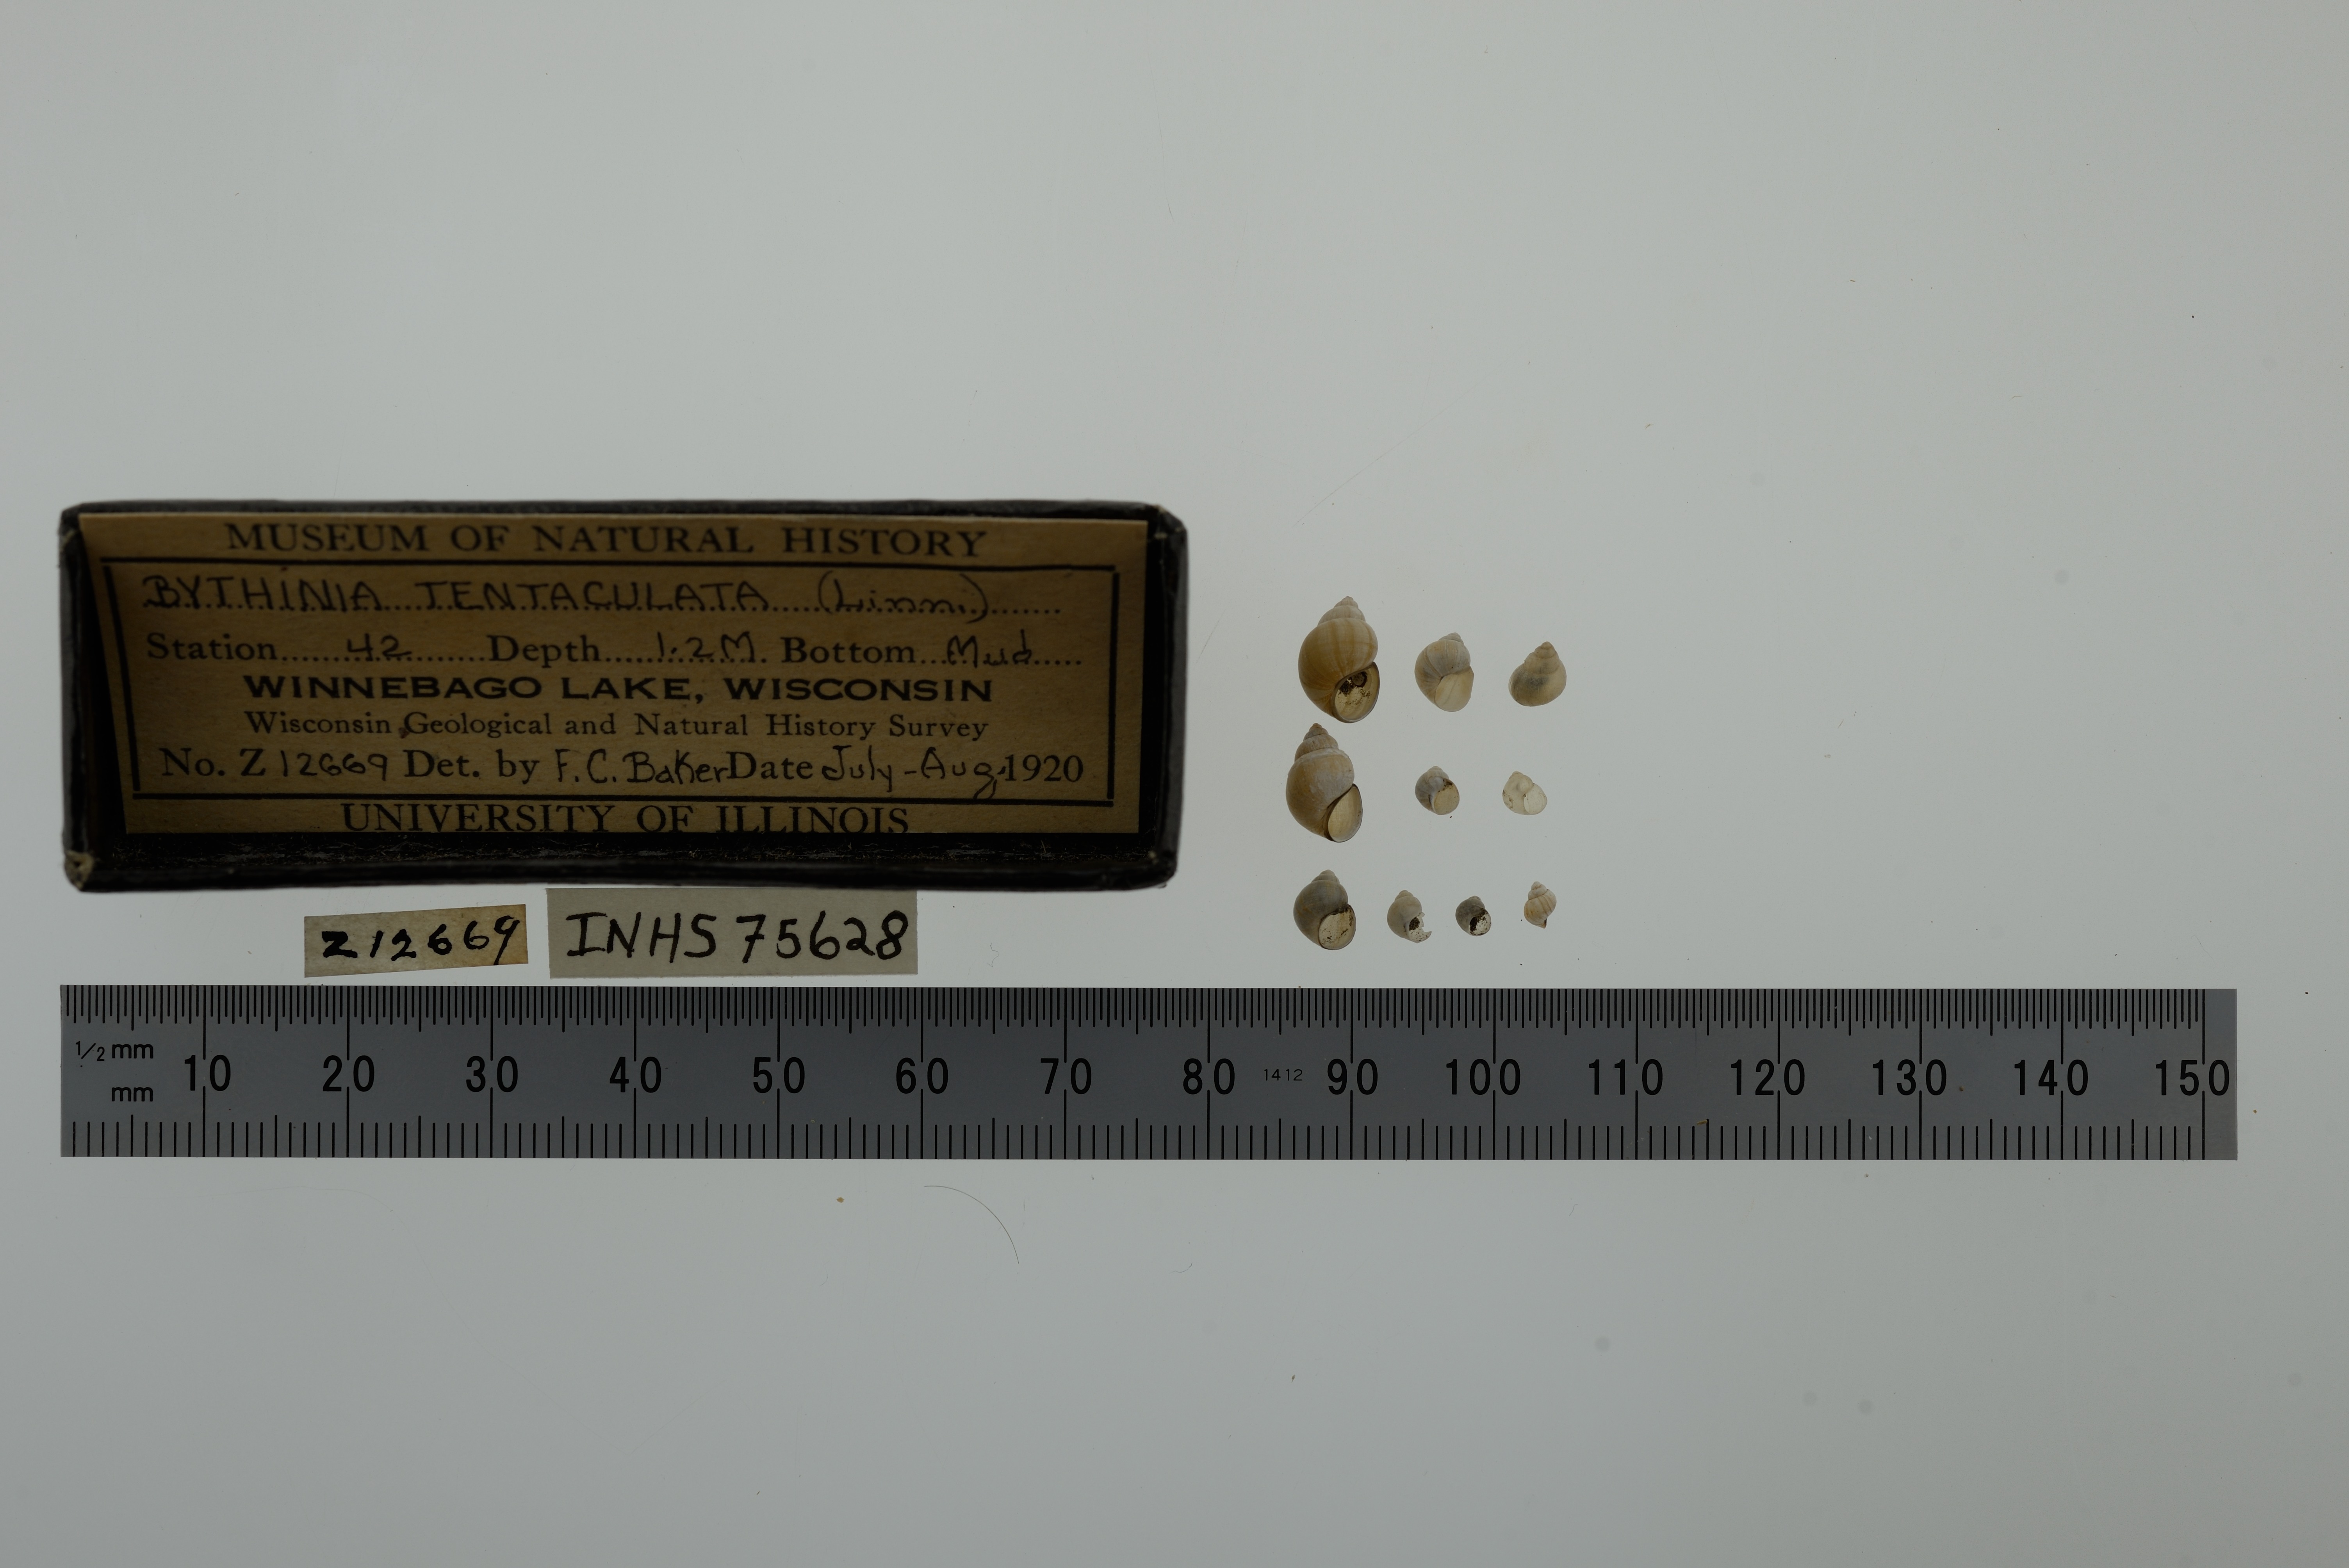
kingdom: Animalia
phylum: Mollusca
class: Gastropoda
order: Littorinimorpha
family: Bithyniidae
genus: Bithynia
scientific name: Bithynia tentaculata
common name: Common bithynia
